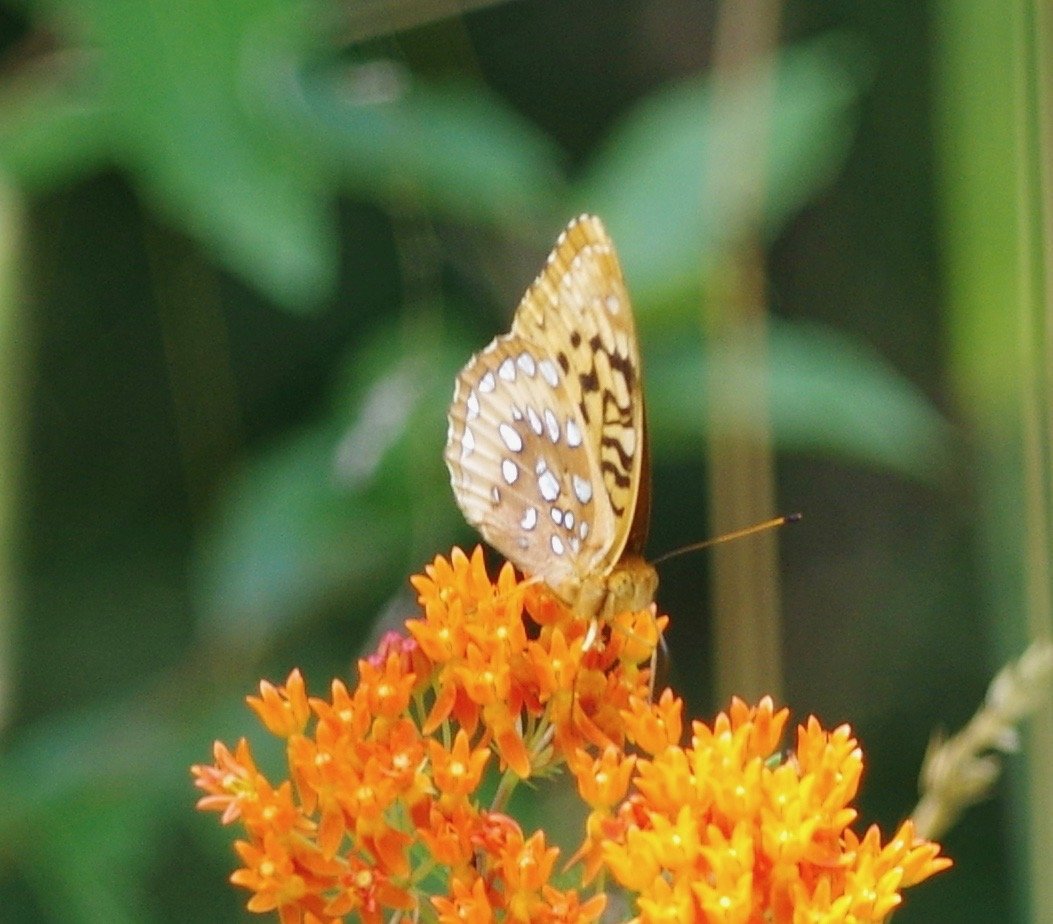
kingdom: Animalia
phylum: Arthropoda
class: Insecta
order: Lepidoptera
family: Nymphalidae
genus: Speyeria
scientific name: Speyeria cybele
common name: Great Spangled Fritillary
